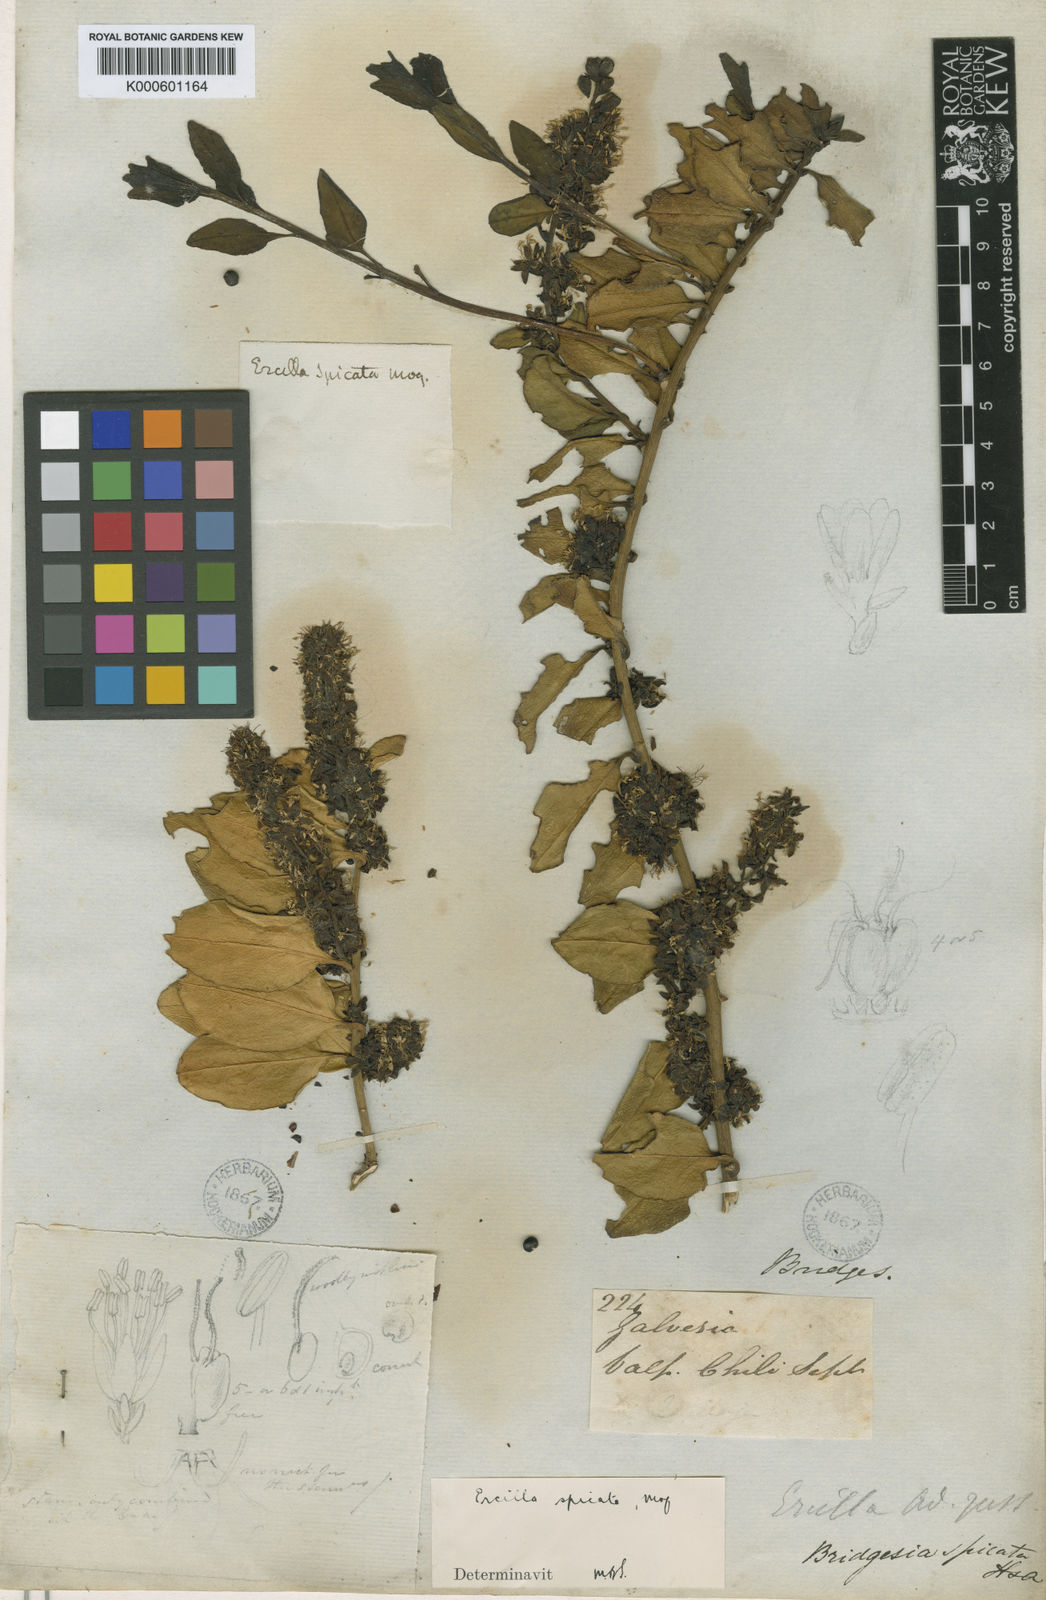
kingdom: Plantae
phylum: Tracheophyta
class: Magnoliopsida
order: Caryophyllales
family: Phytolaccaceae
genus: Ercilla
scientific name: Ercilla spicata
